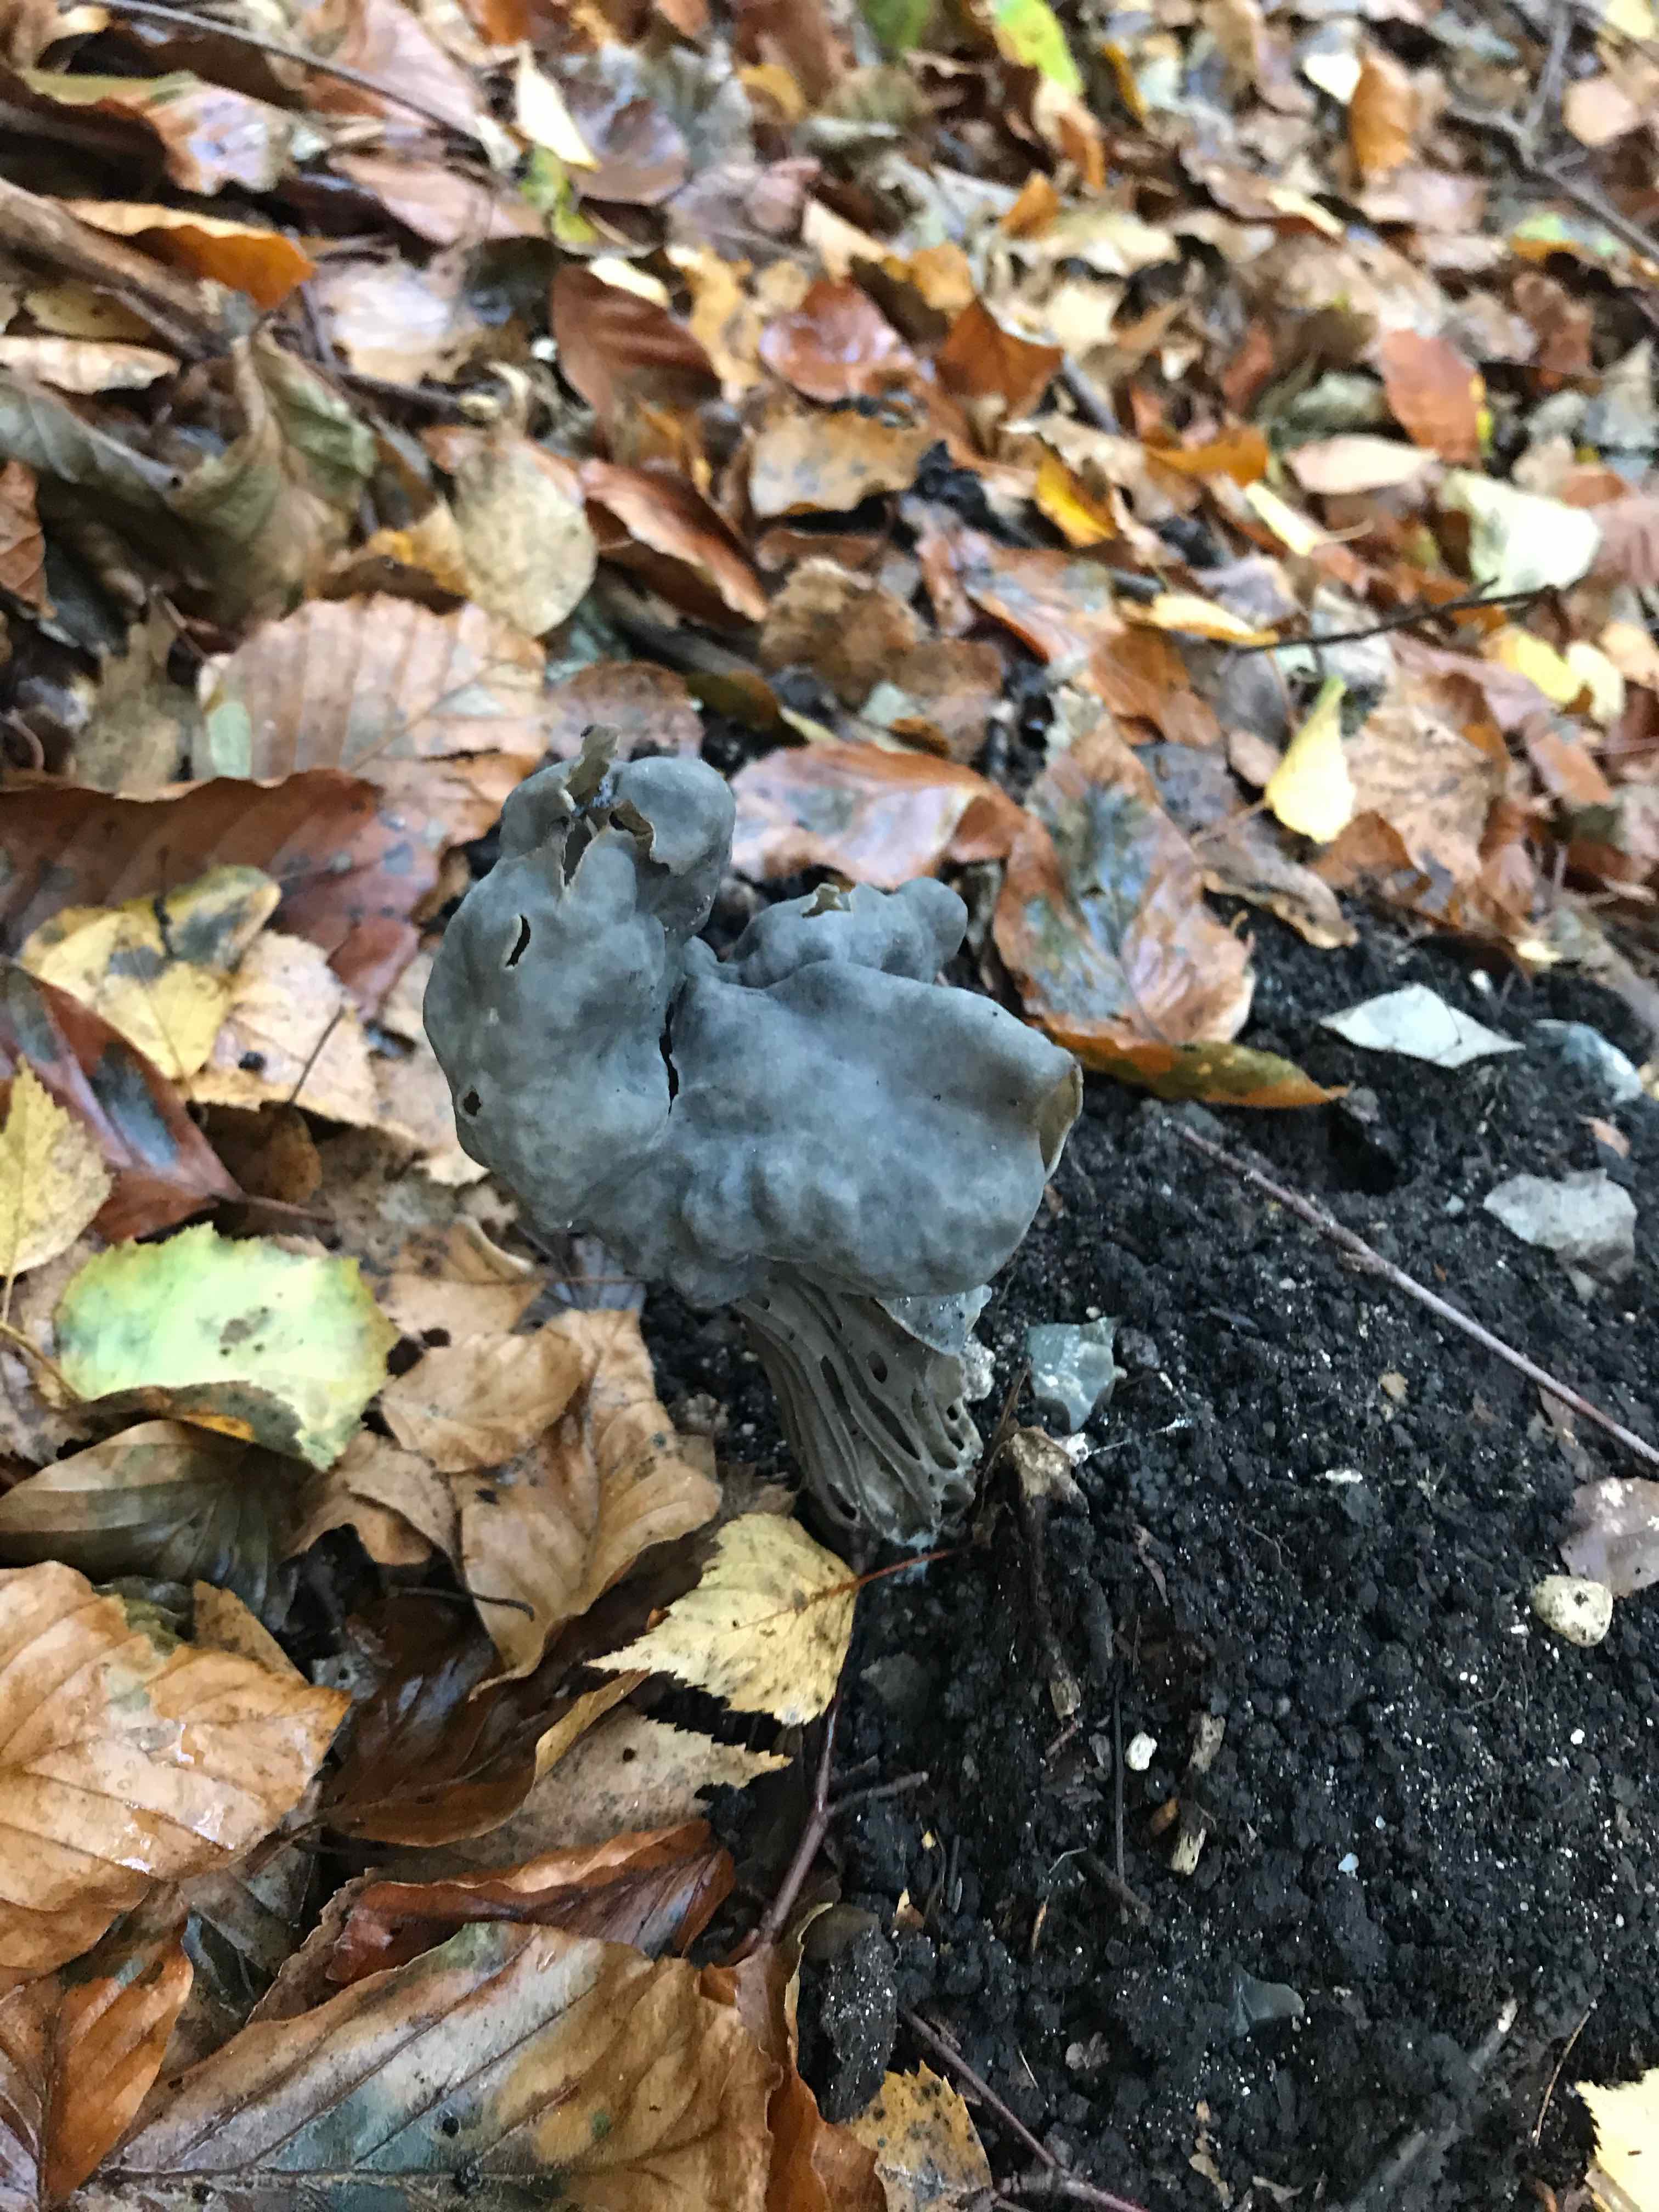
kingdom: Fungi
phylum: Ascomycota
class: Pezizomycetes
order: Pezizales
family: Helvellaceae
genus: Helvella
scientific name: Helvella lacunosa
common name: grubet foldhat
